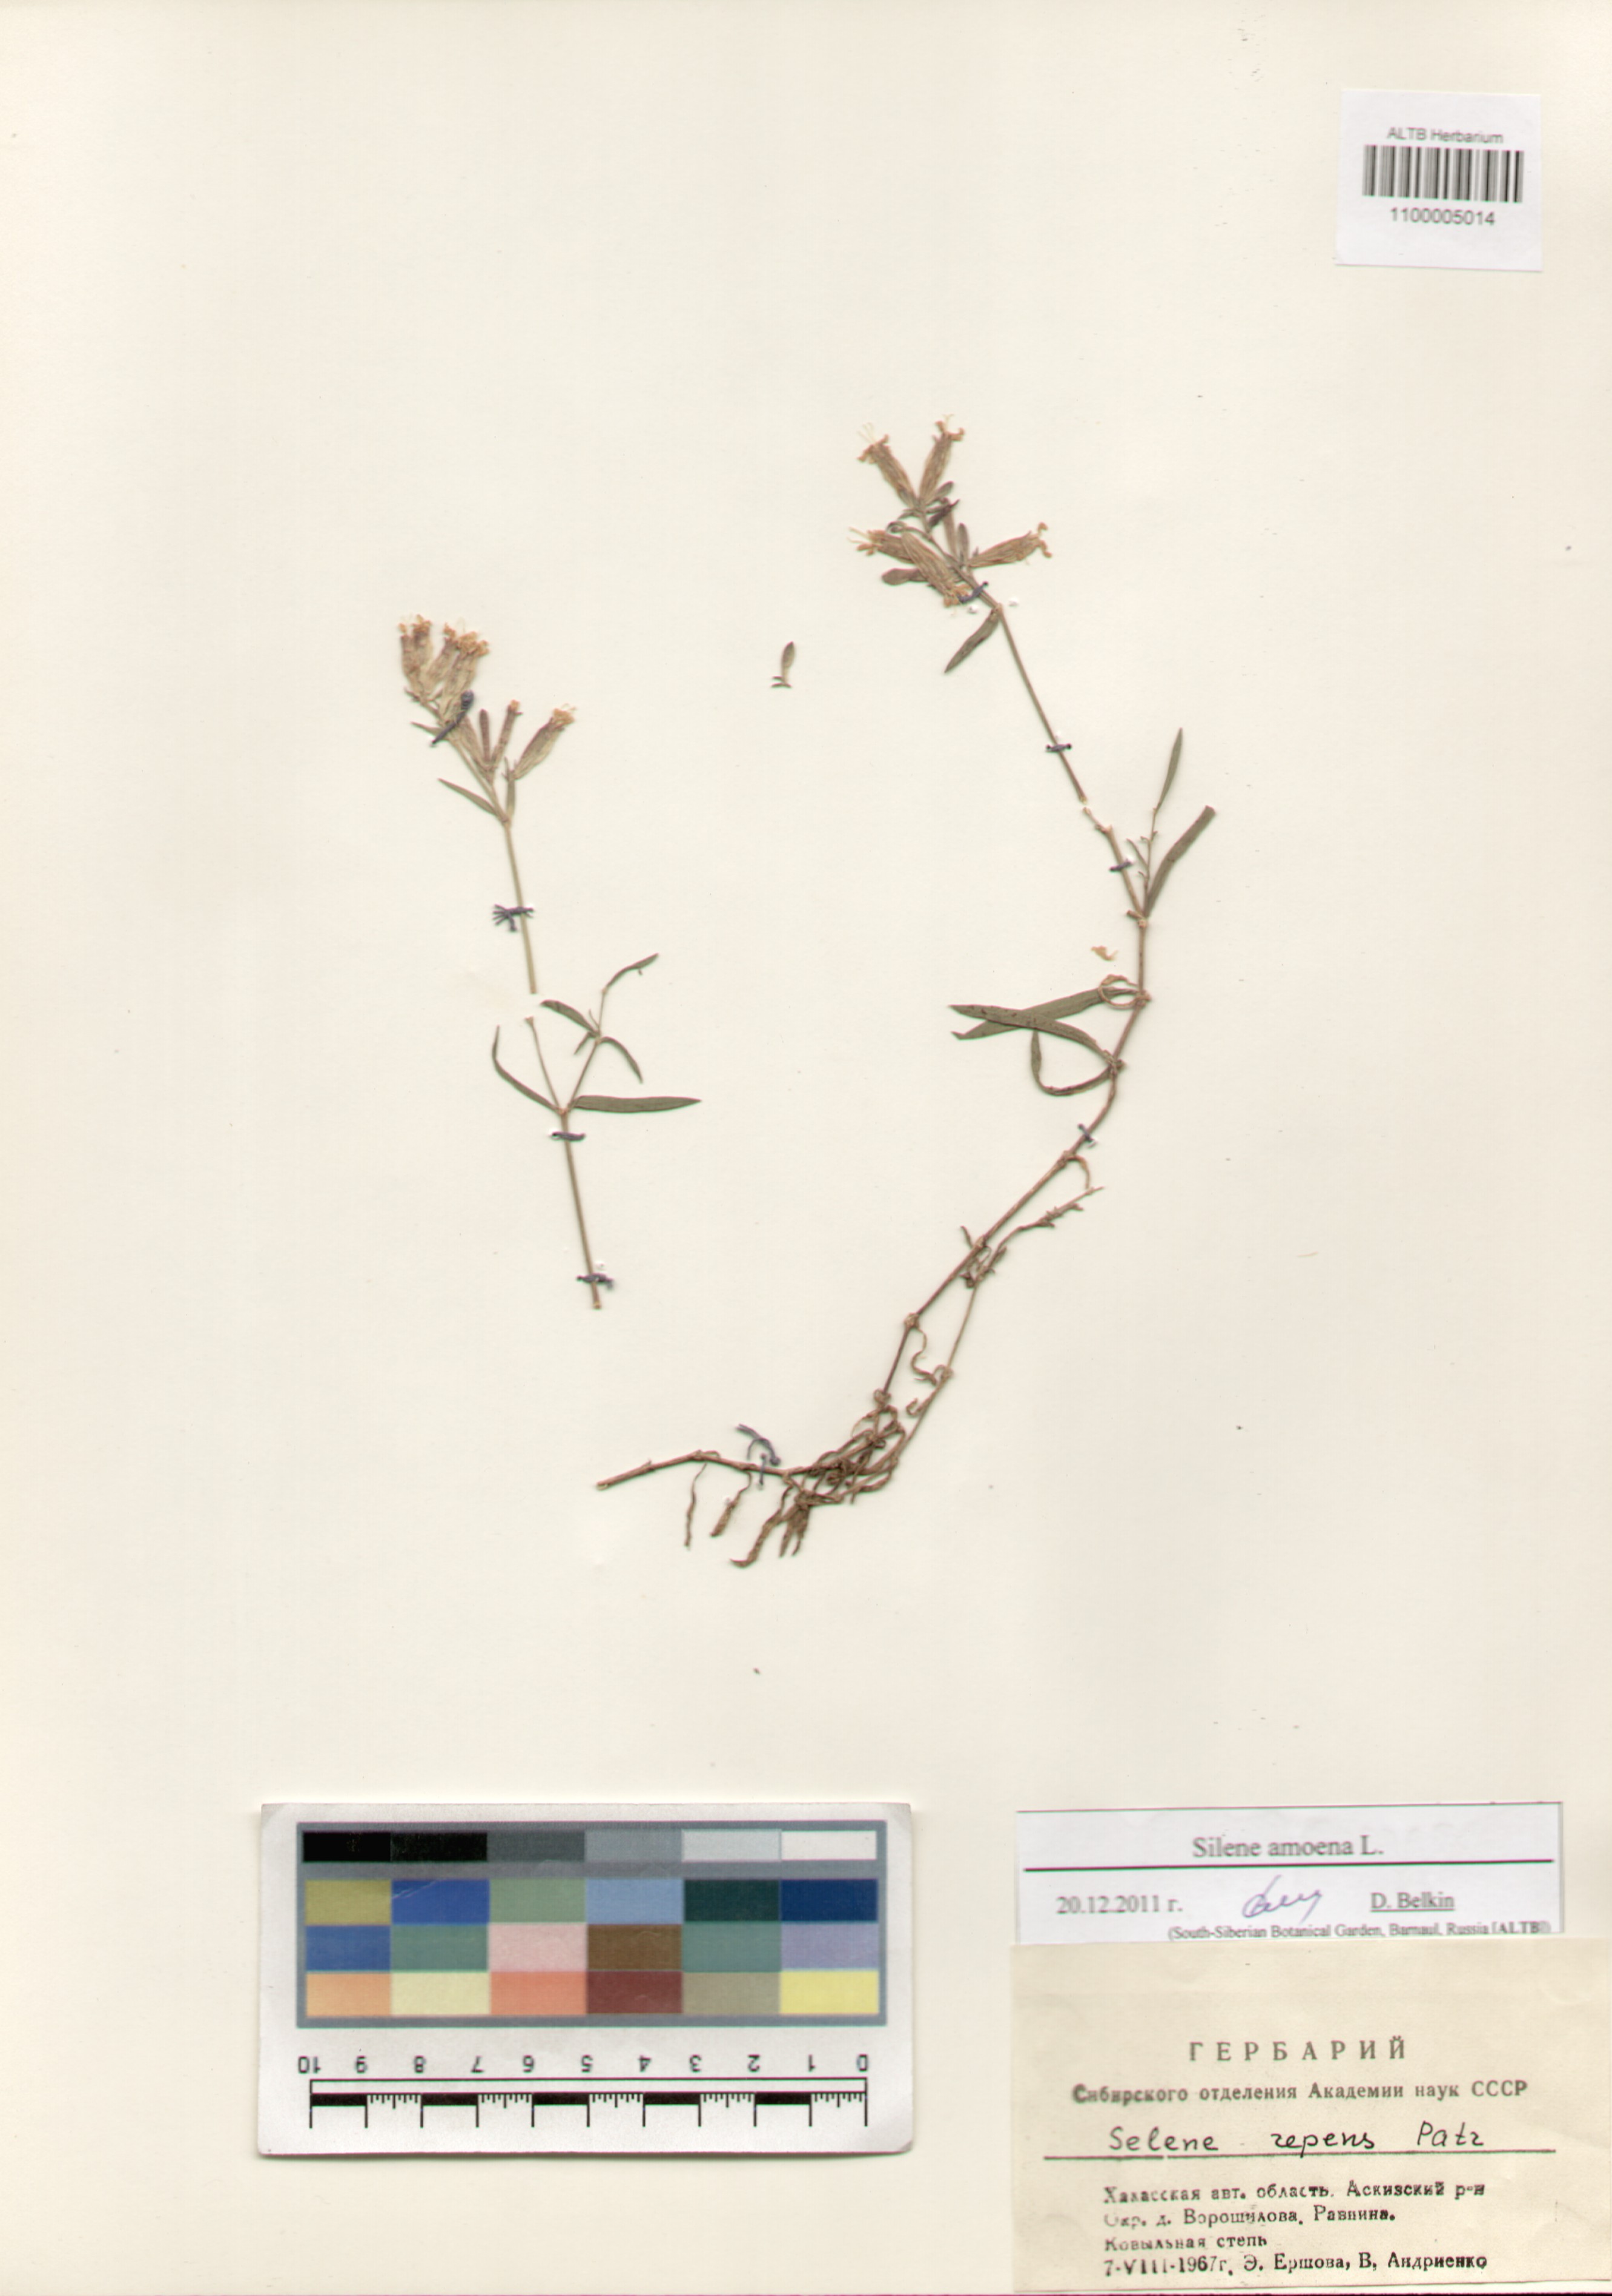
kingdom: Plantae
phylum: Tracheophyta
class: Magnoliopsida
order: Caryophyllales
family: Caryophyllaceae
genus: Silene
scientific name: Silene amoena
